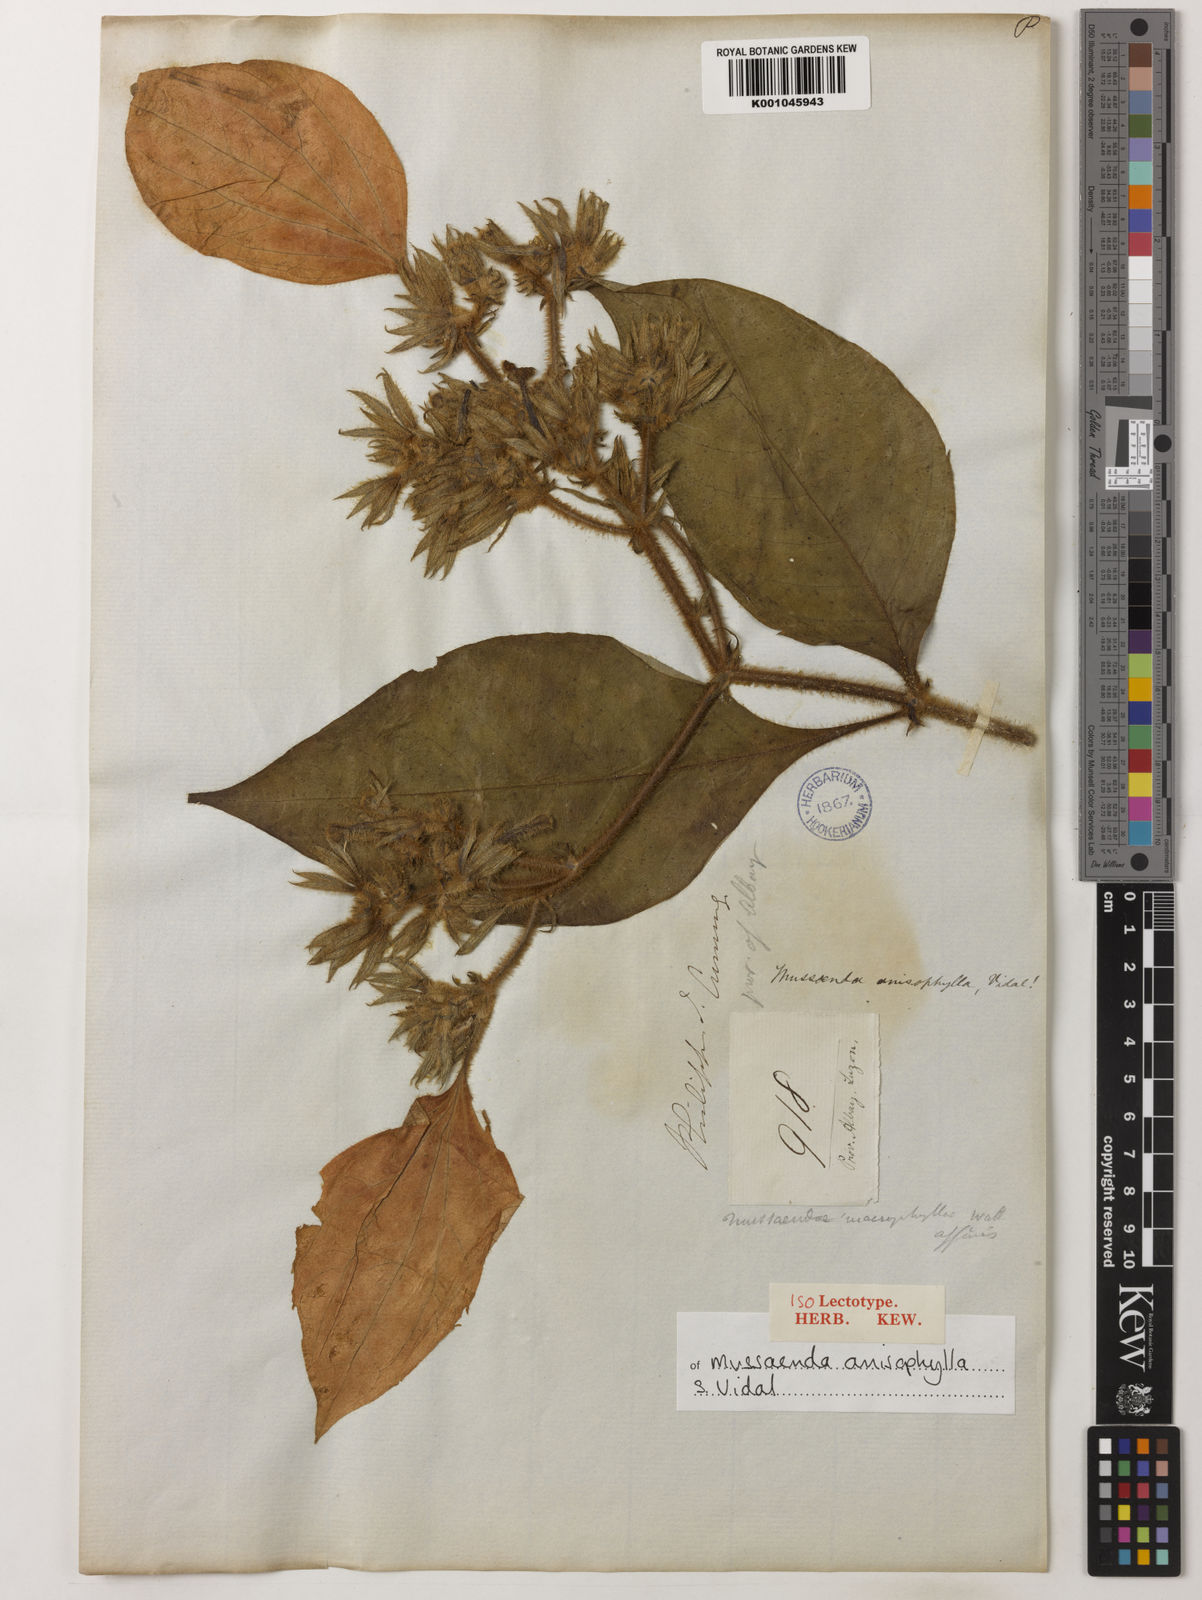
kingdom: Plantae
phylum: Tracheophyta
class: Magnoliopsida
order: Gentianales
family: Rubiaceae
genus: Mussaenda
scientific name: Mussaenda anisophylla
